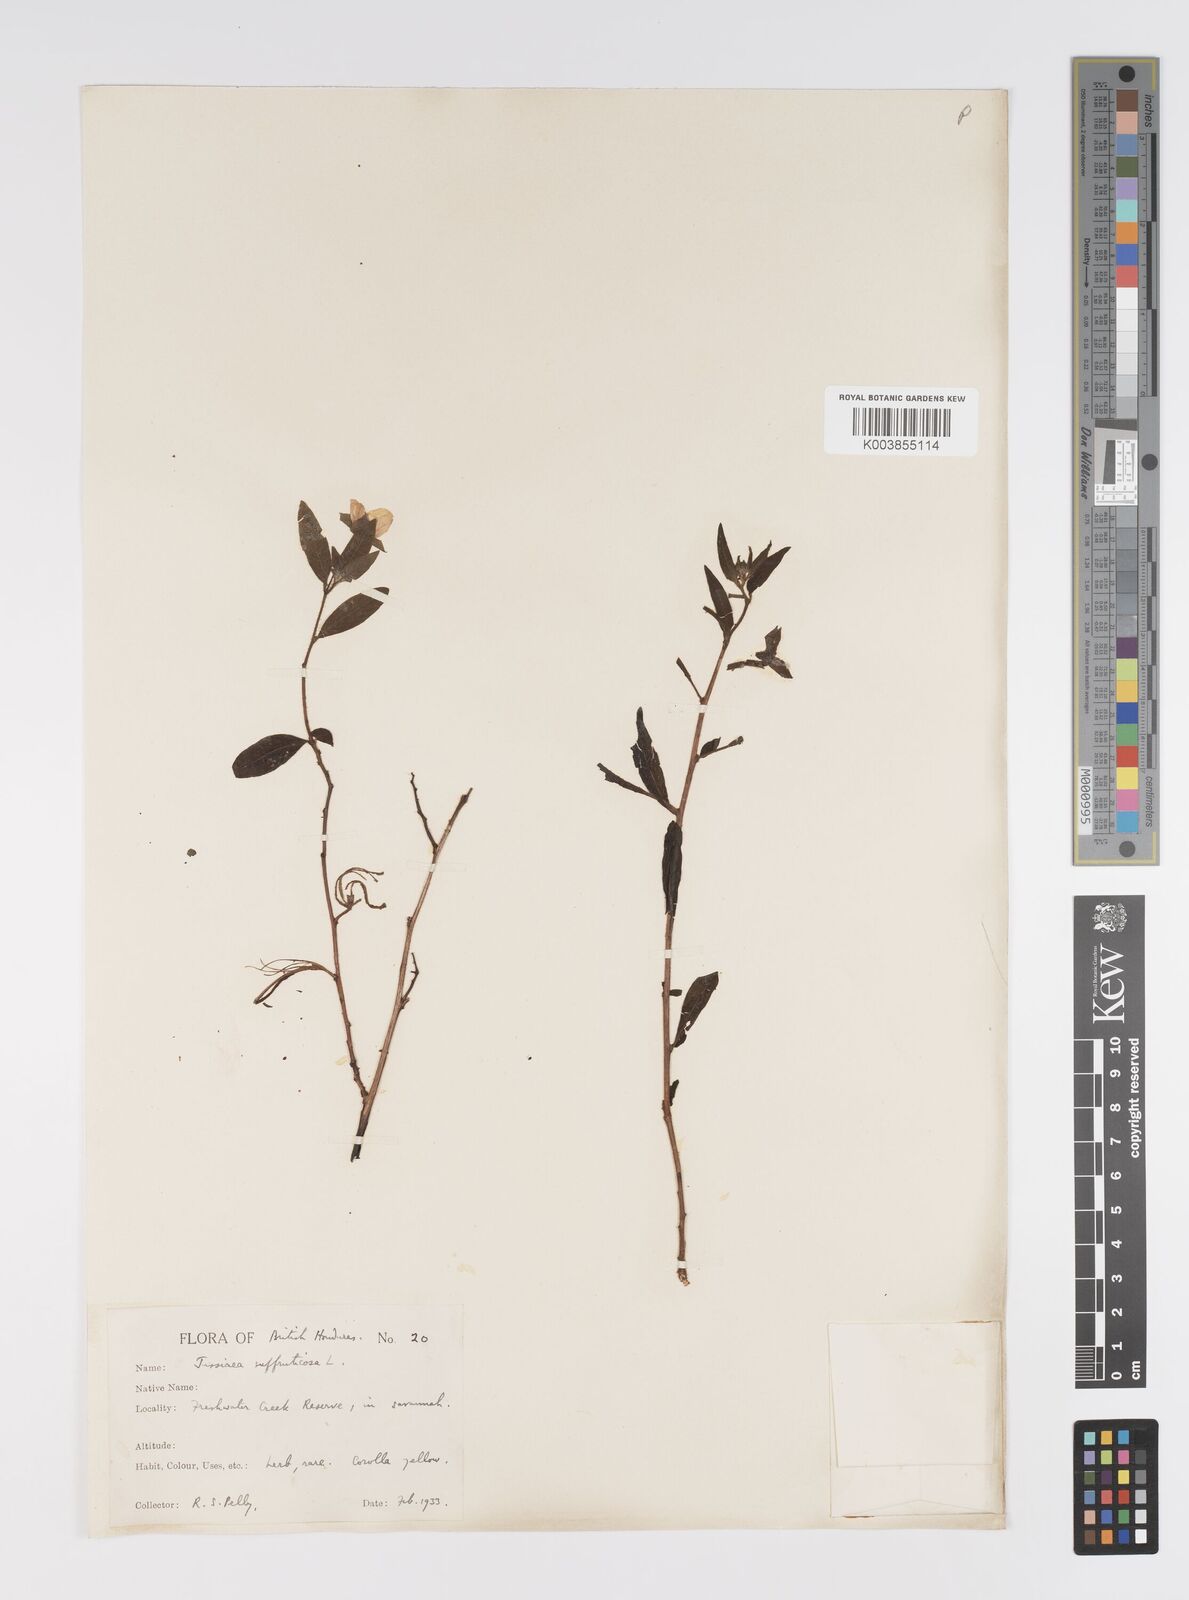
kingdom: Plantae
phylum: Tracheophyta
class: Magnoliopsida
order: Myrtales
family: Onagraceae
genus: Ludwigia
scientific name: Ludwigia octovalvis
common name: Water-primrose
